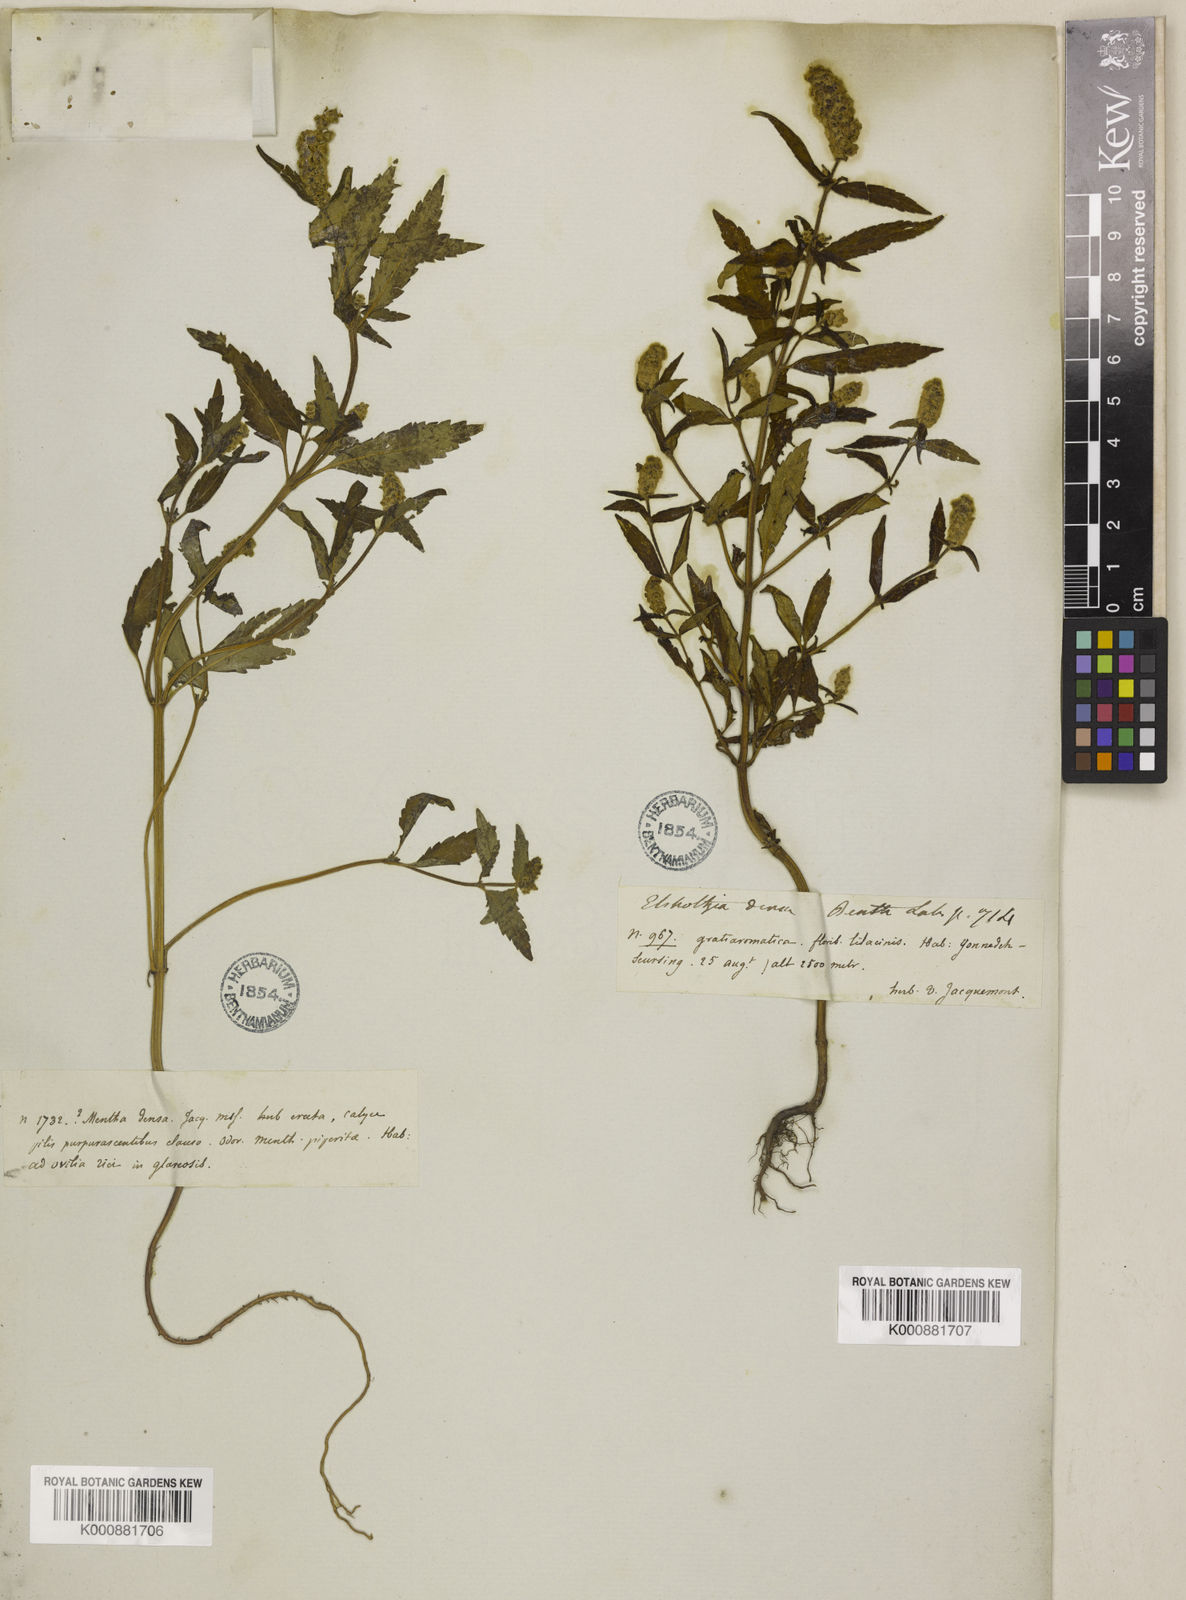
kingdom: Plantae
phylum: Tracheophyta
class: Magnoliopsida
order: Lamiales
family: Lamiaceae
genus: Elsholtzia
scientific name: Elsholtzia densa
